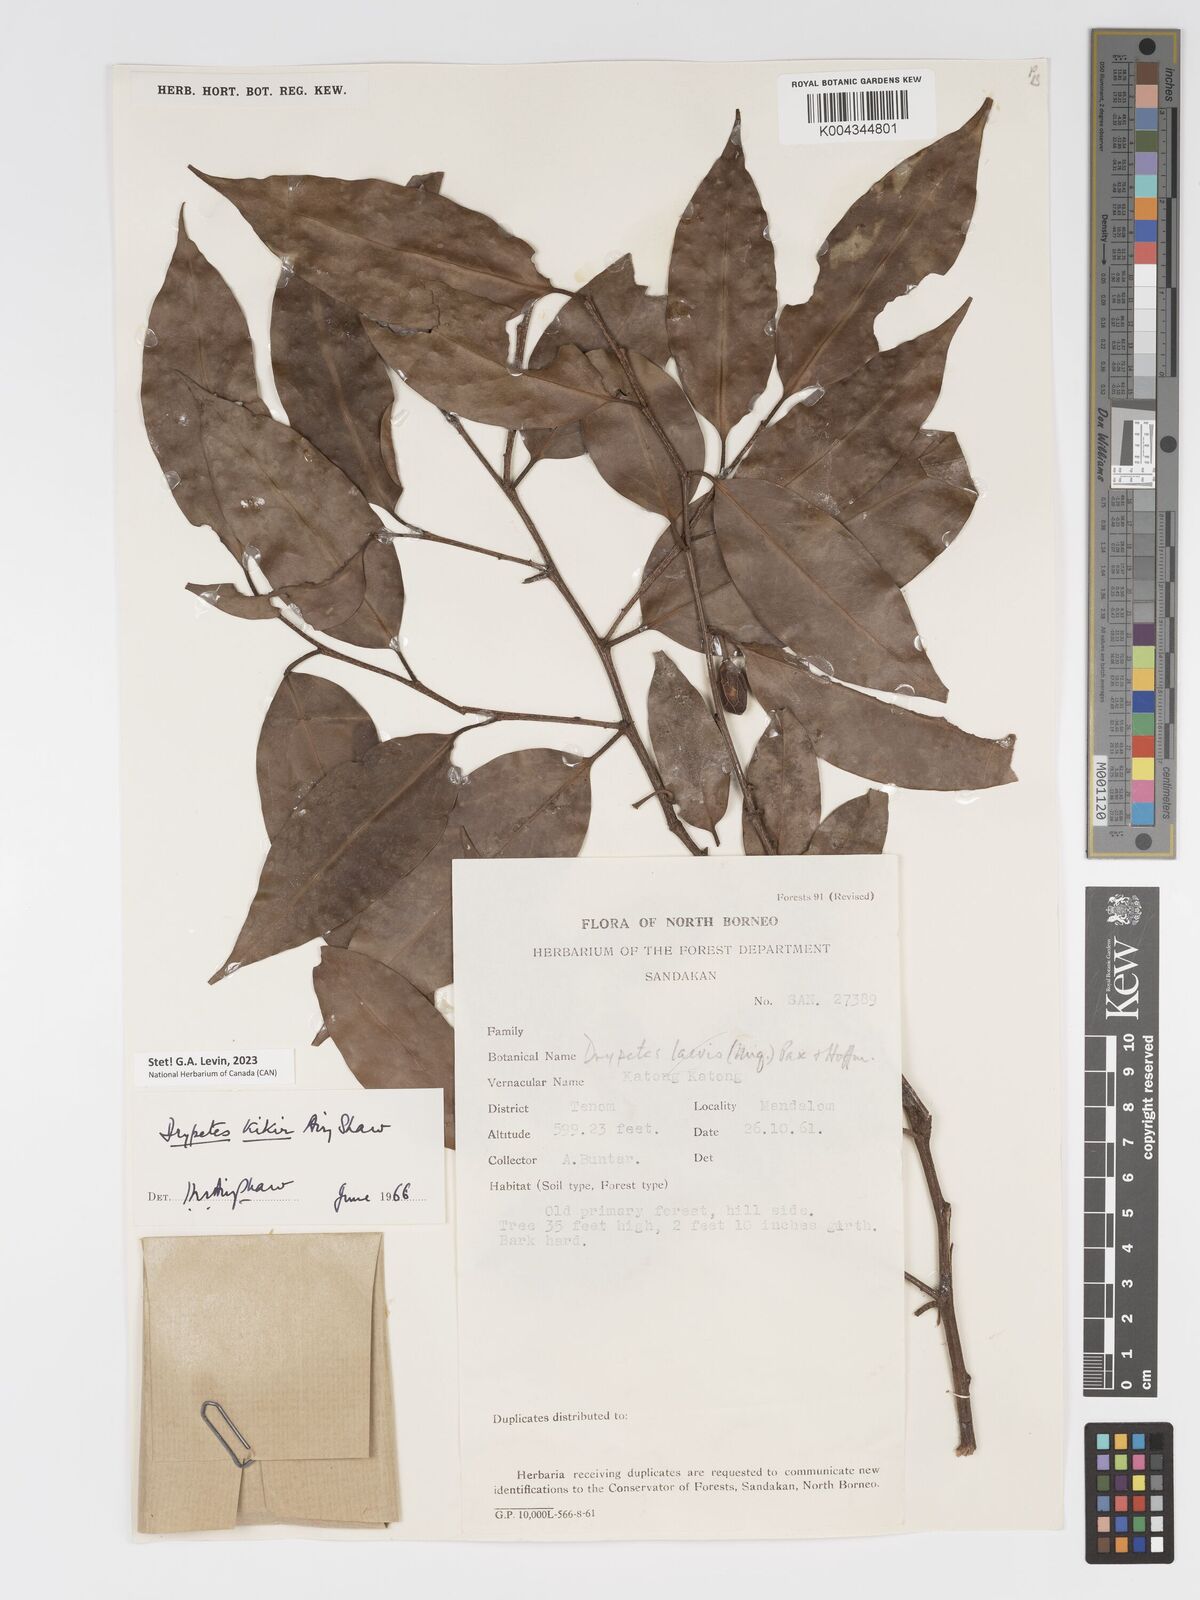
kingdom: Plantae
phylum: Tracheophyta
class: Magnoliopsida
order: Malpighiales
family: Putranjivaceae
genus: Drypetes
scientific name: Drypetes kikir
